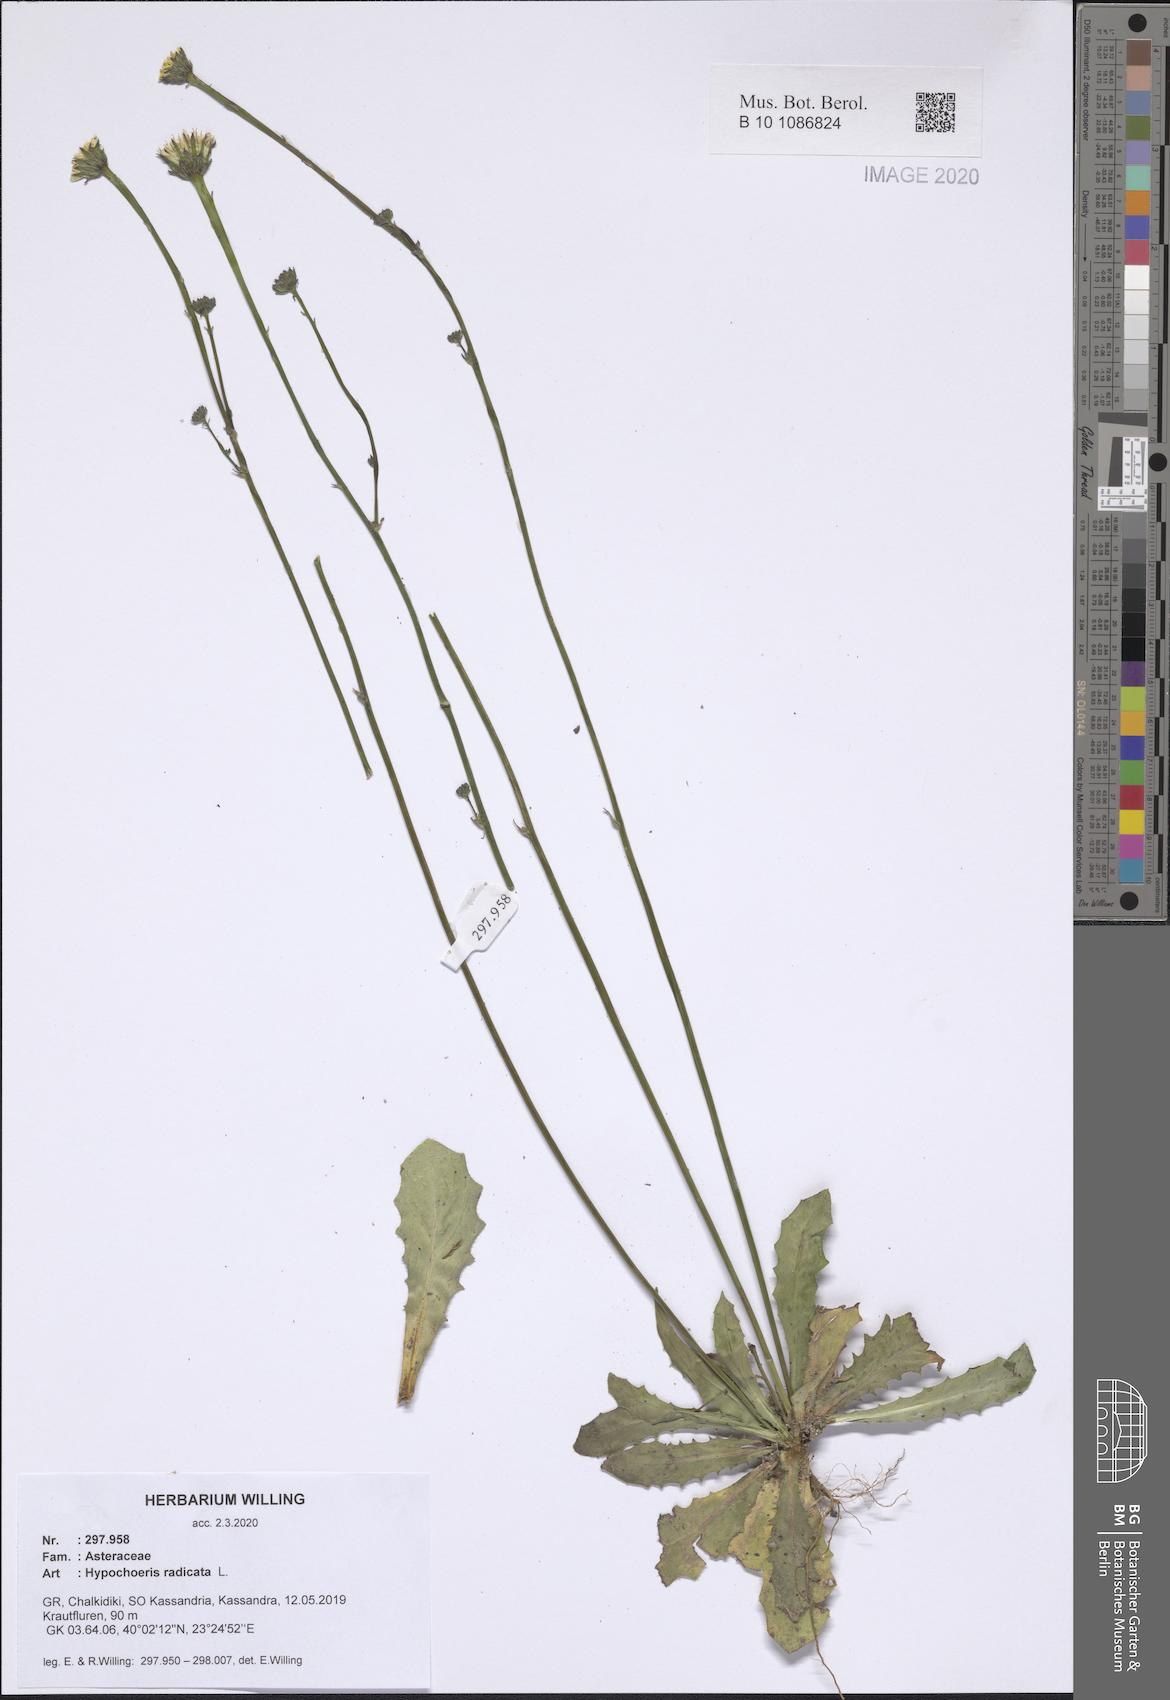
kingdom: Plantae
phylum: Tracheophyta
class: Magnoliopsida
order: Asterales
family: Asteraceae
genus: Hypochaeris
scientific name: Hypochaeris radicata
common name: Flatweed
